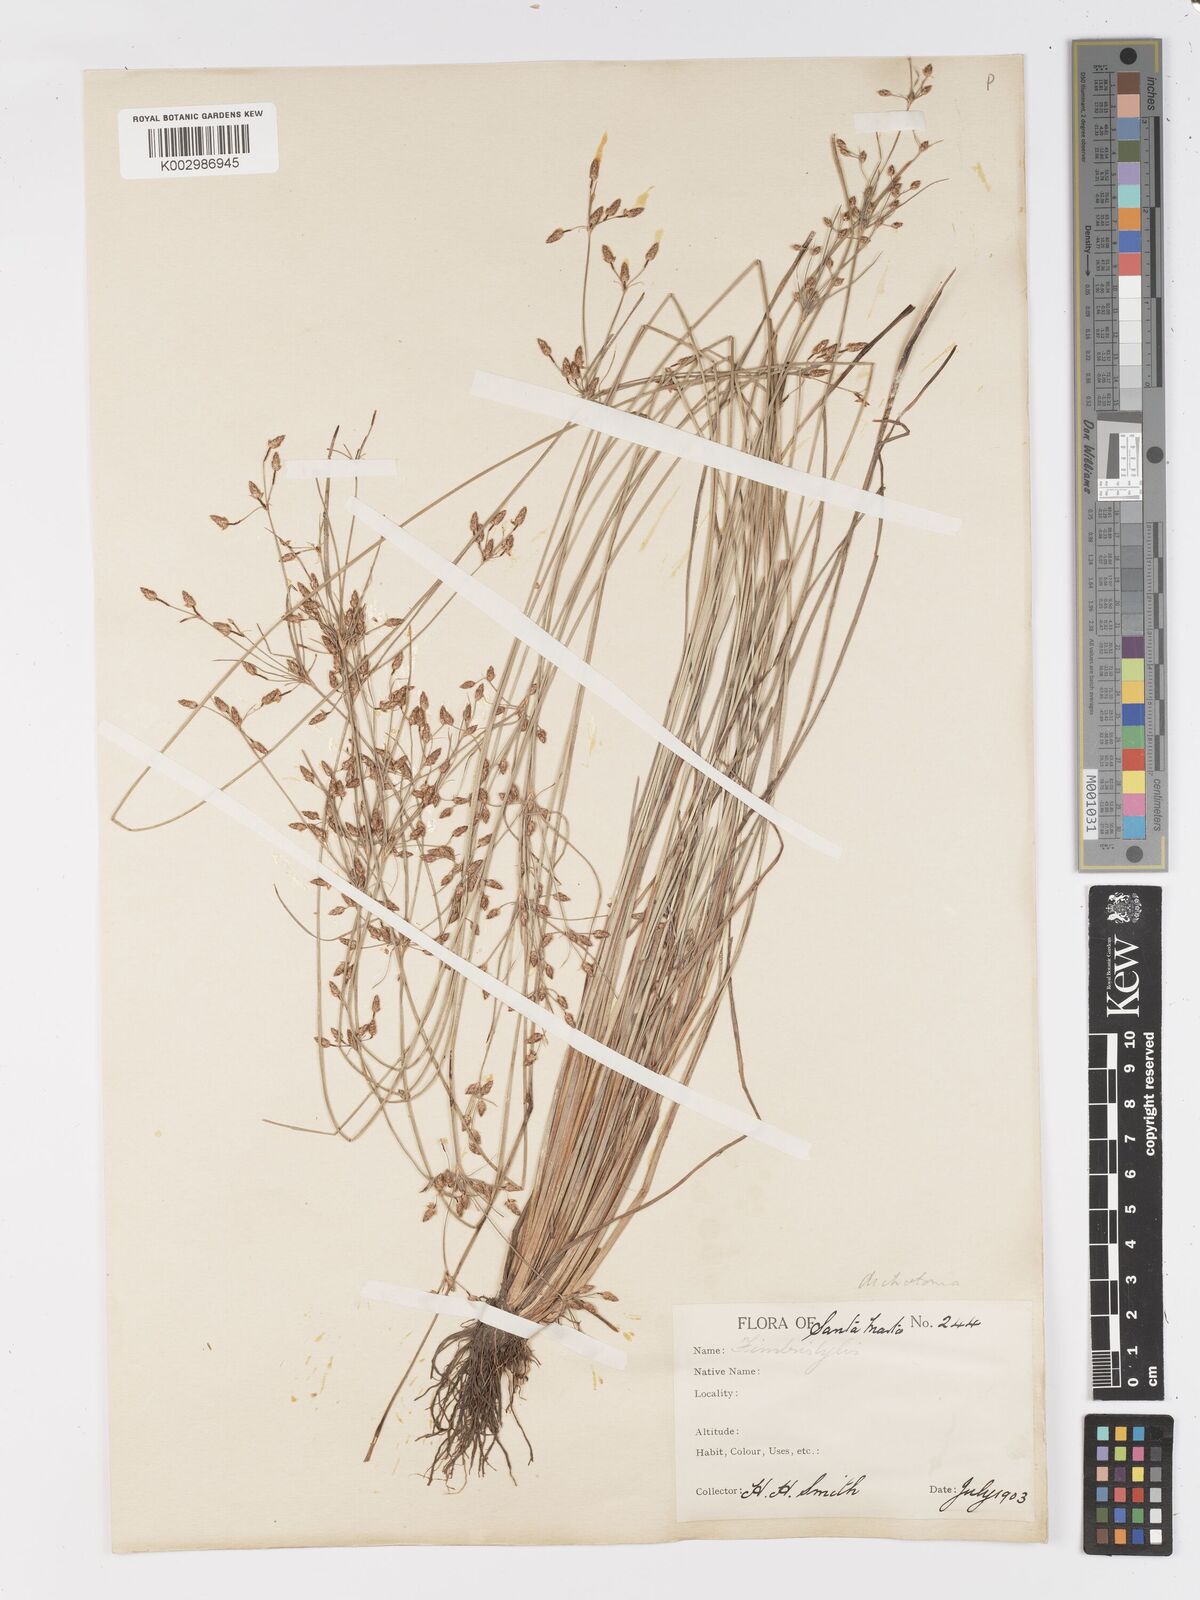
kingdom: Plantae
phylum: Tracheophyta
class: Liliopsida
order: Poales
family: Cyperaceae
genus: Fimbristylis
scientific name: Fimbristylis dichotoma
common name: Forked fimbry
